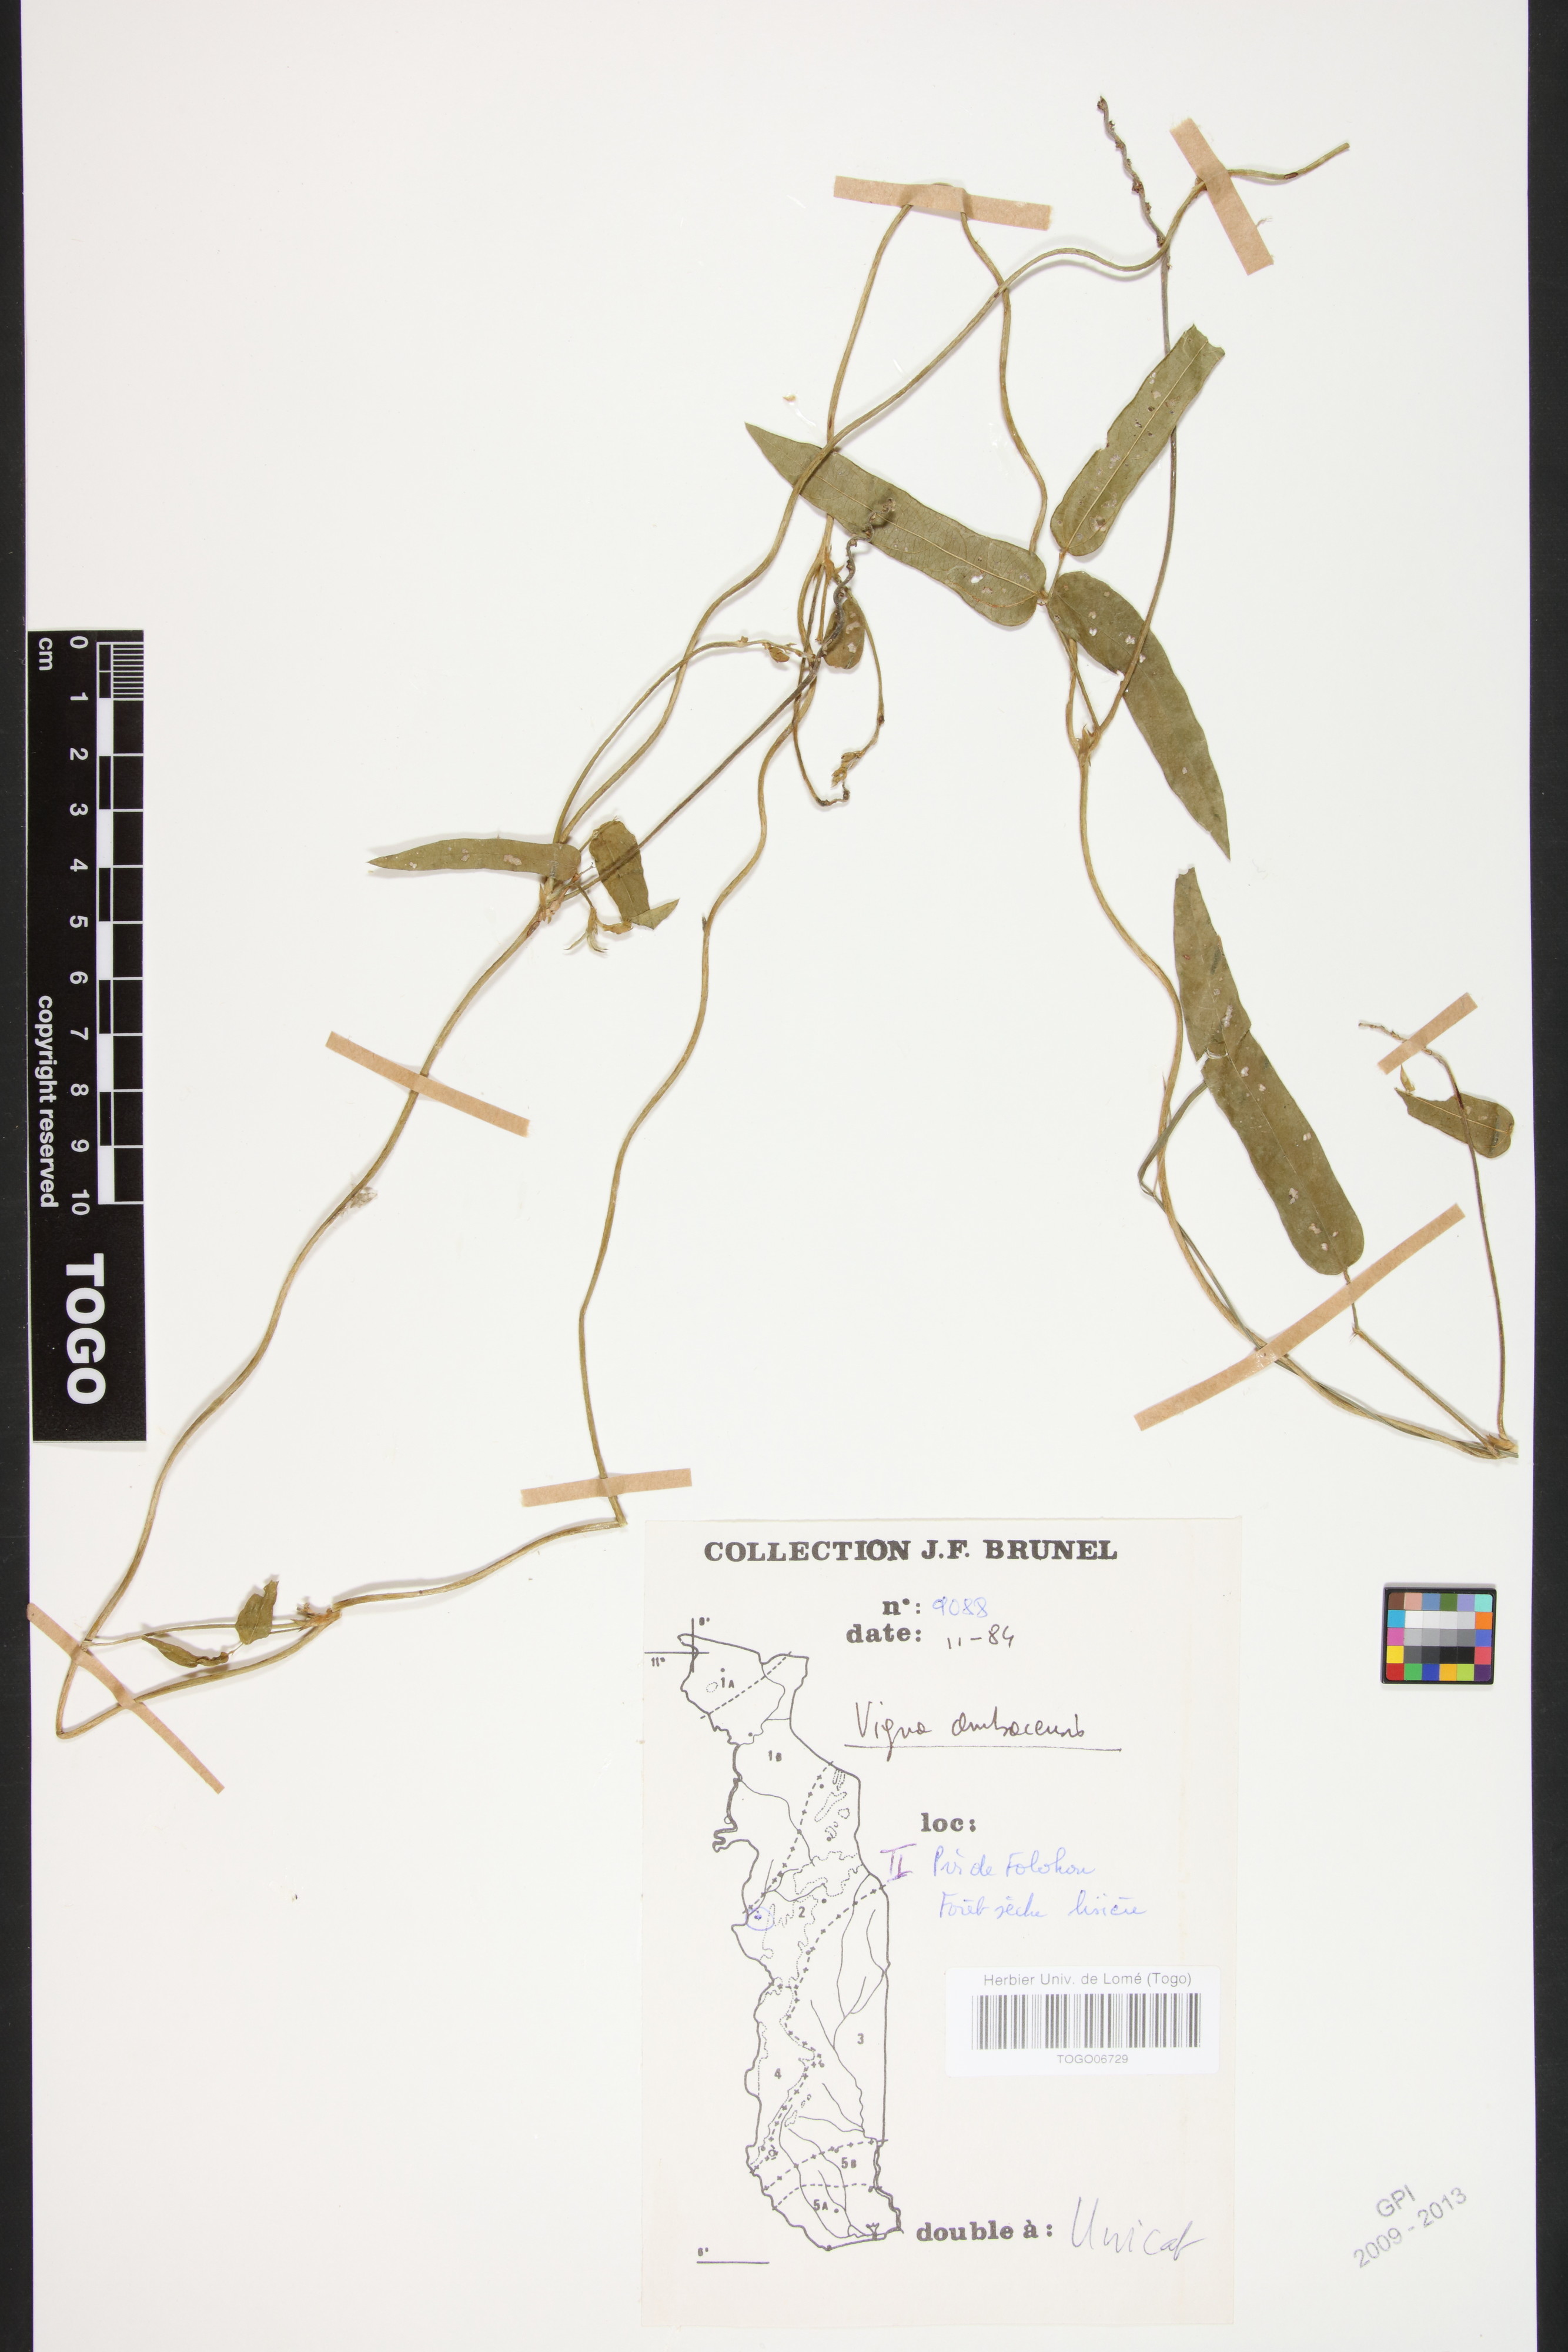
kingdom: Plantae
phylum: Tracheophyta
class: Magnoliopsida
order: Fabales
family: Fabaceae
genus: Vigna
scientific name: Vigna ambacensis
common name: Tsarkiyan zomo
